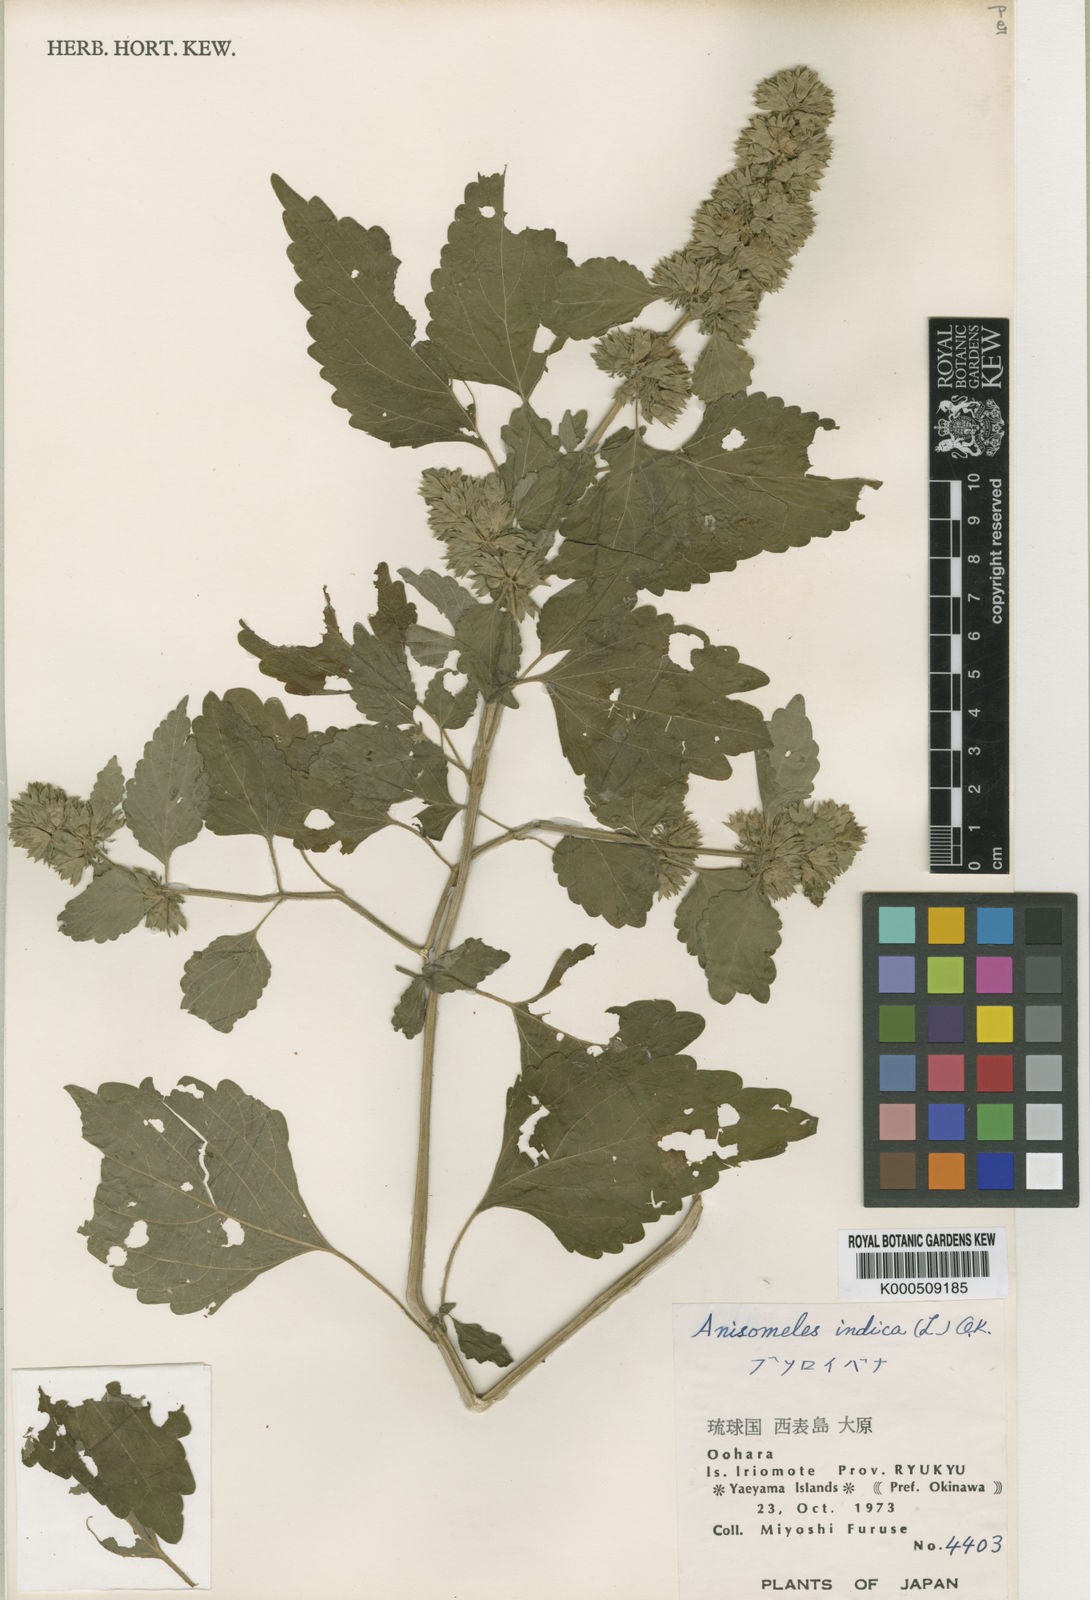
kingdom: Plantae
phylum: Tracheophyta
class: Magnoliopsida
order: Lamiales
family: Lamiaceae
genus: Anisomeles
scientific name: Anisomeles indica
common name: Catmint
